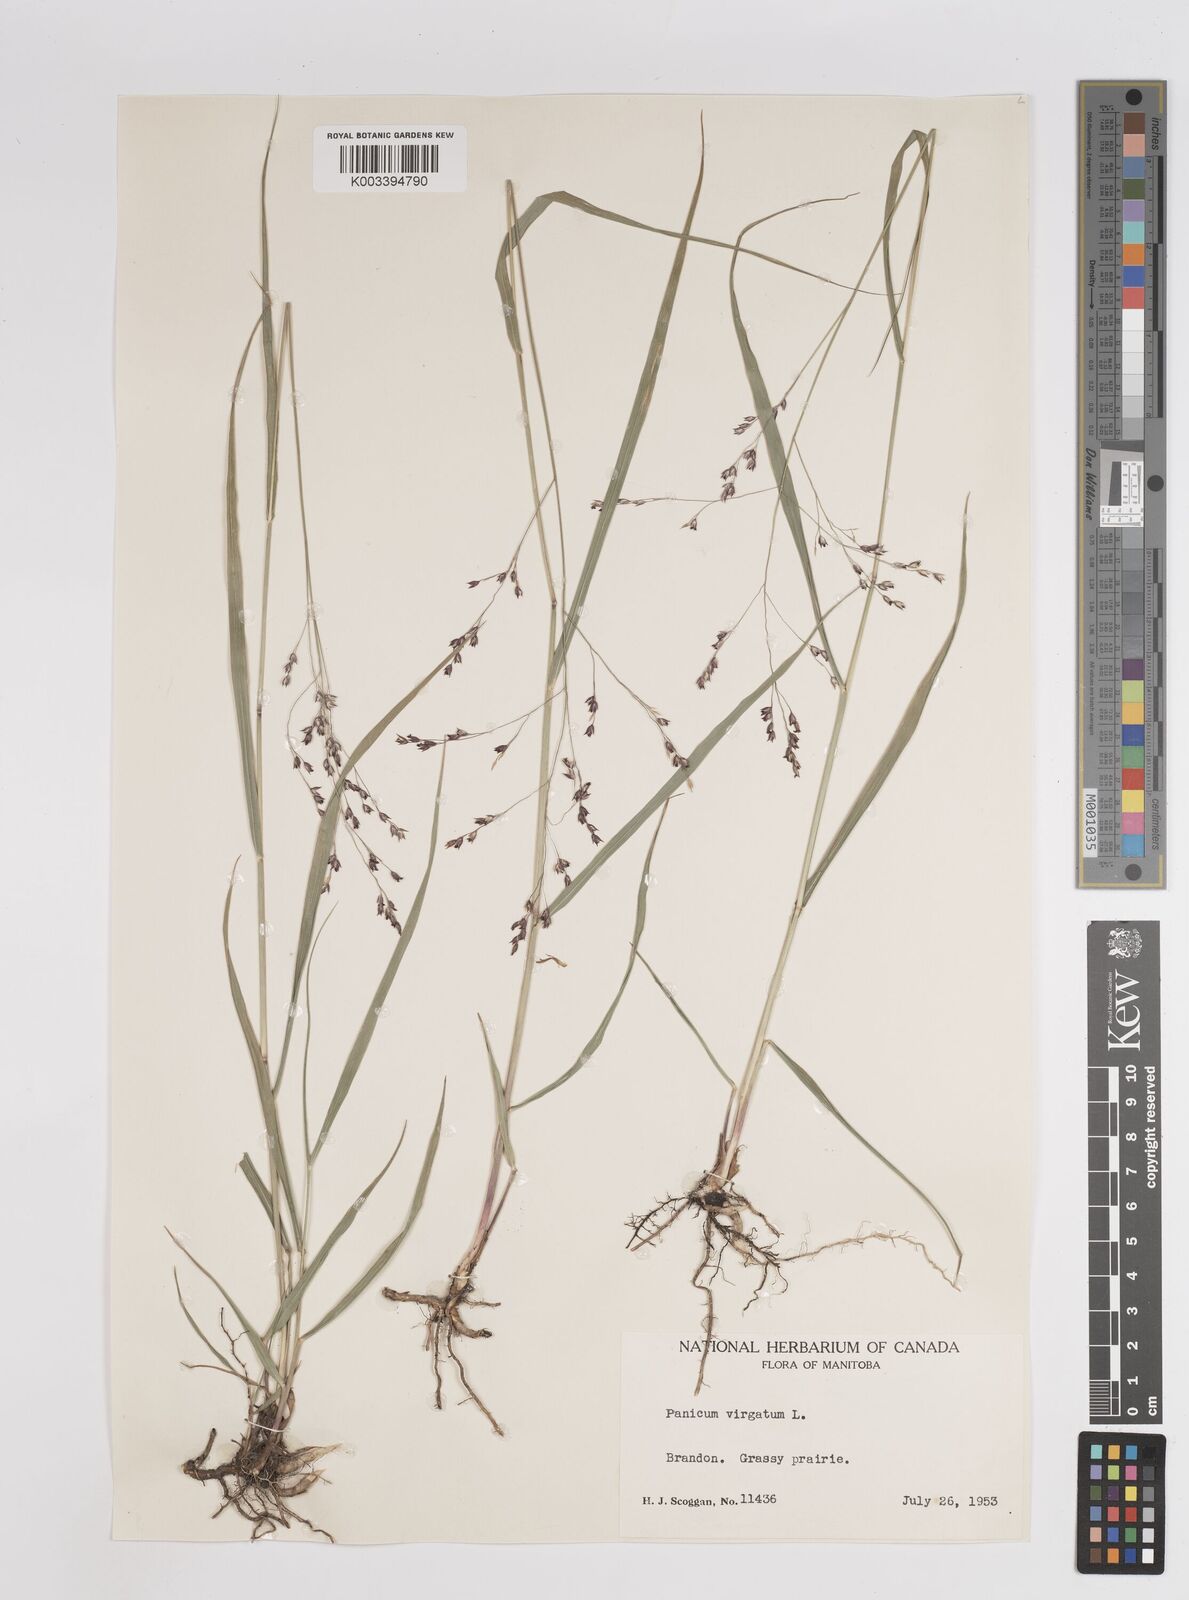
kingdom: Plantae
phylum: Tracheophyta
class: Liliopsida
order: Poales
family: Poaceae
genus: Panicum
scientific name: Panicum virgatum
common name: Switchgrass
